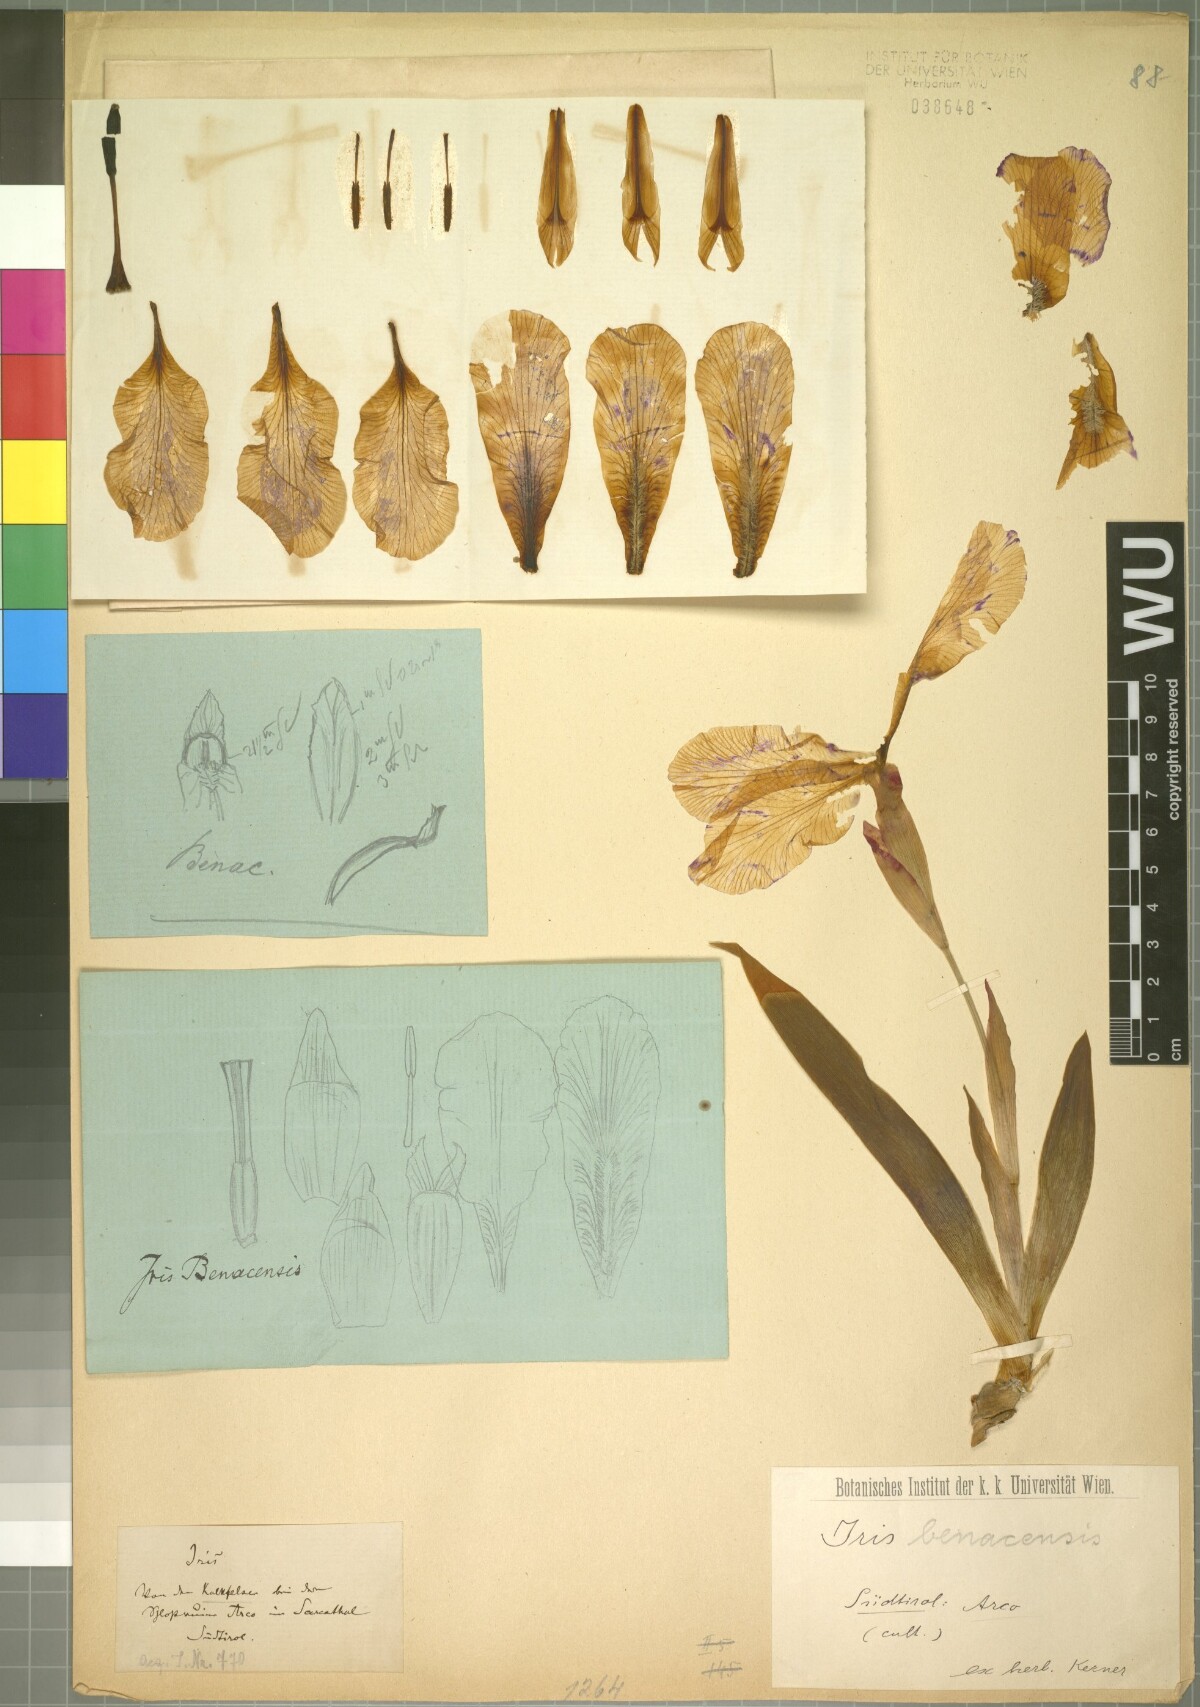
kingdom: Plantae
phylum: Tracheophyta
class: Liliopsida
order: Asparagales
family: Iridaceae
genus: Iris
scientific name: Iris benacensis
